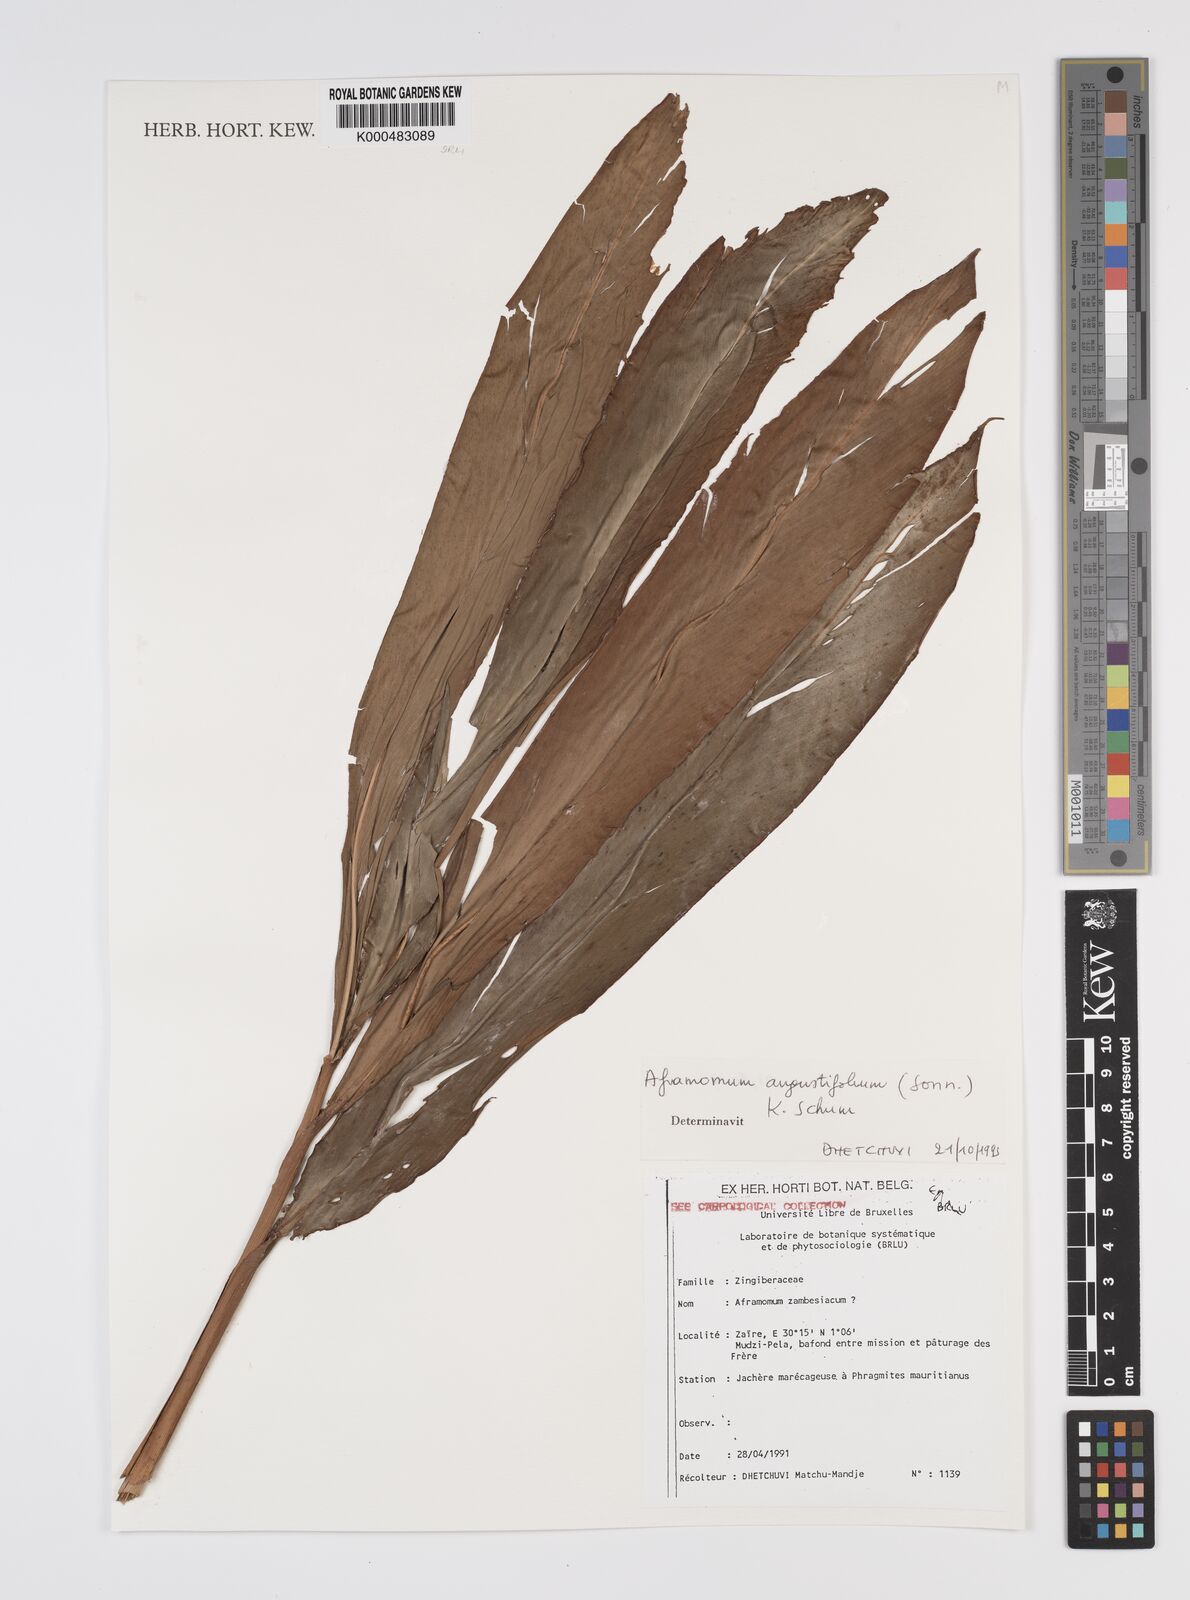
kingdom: Plantae
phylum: Tracheophyta
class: Liliopsida
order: Zingiberales
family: Zingiberaceae
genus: Aframomum
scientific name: Aframomum angustifolium
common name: Guinea grains
